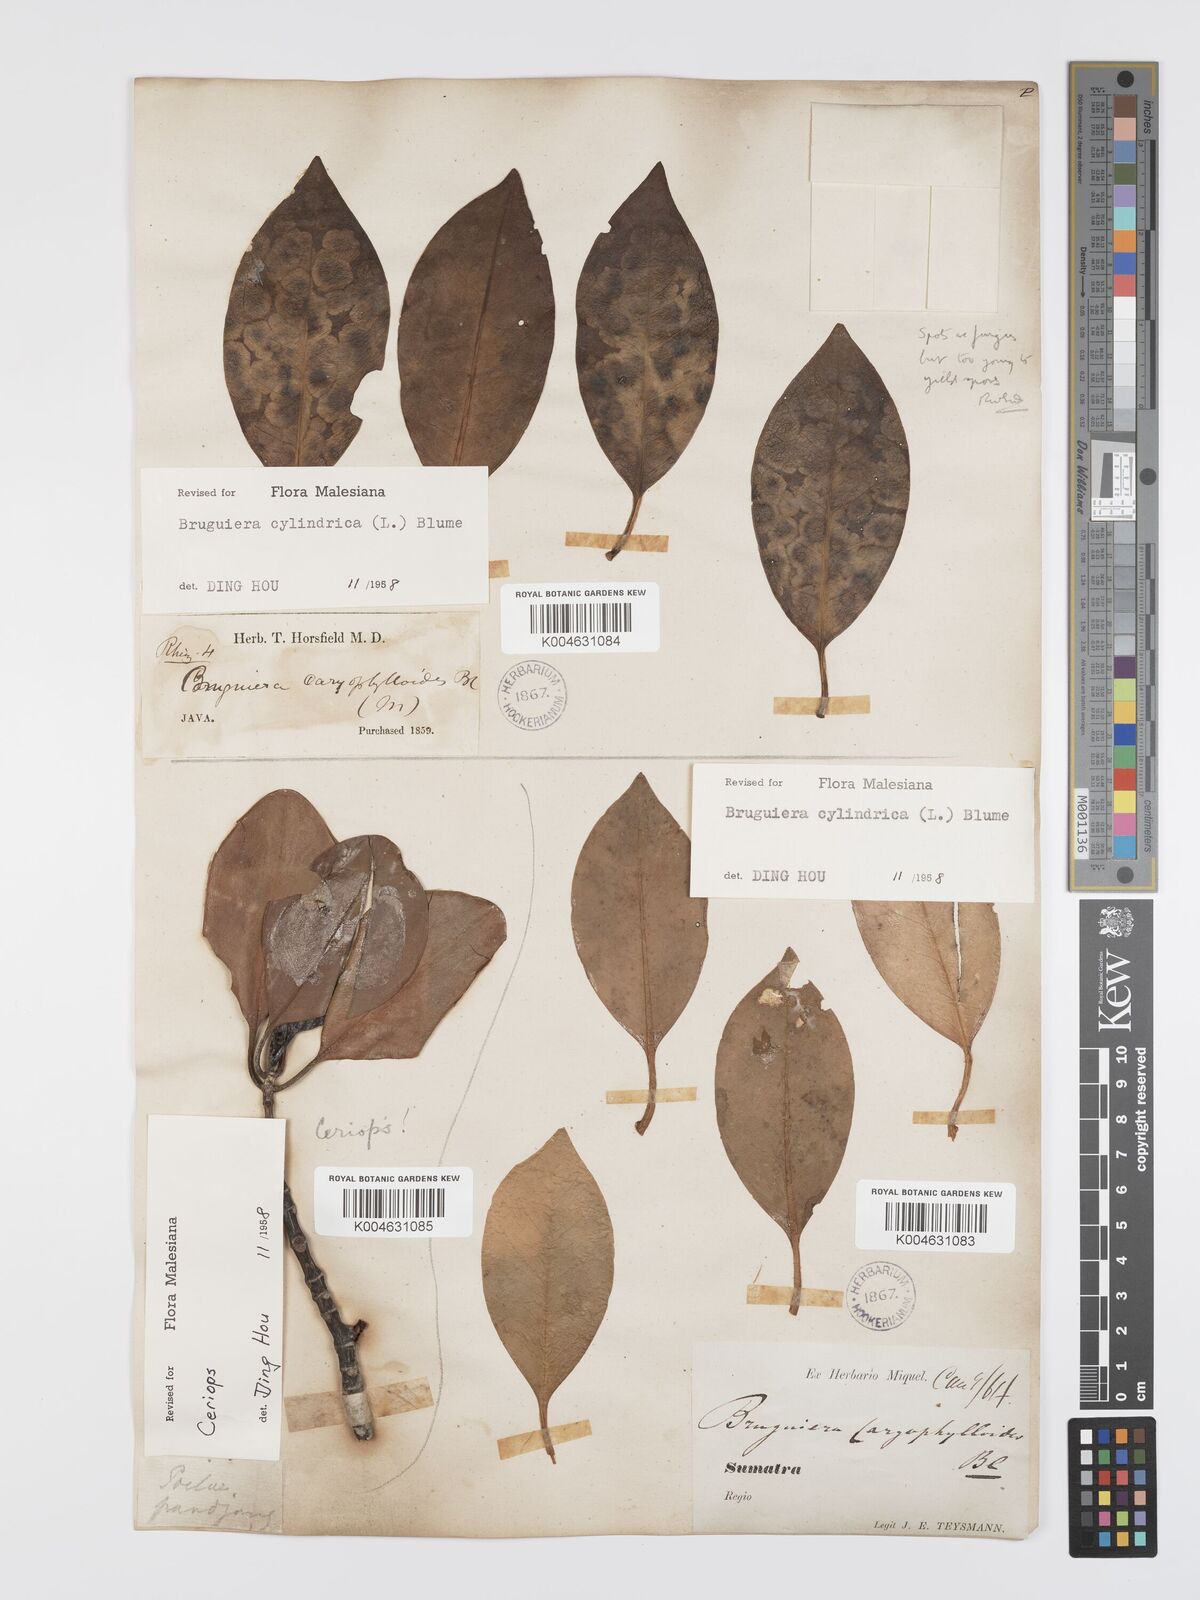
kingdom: Plantae
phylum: Tracheophyta
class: Magnoliopsida
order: Malpighiales
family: Rhizophoraceae
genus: Bruguiera
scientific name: Bruguiera cylindrica
